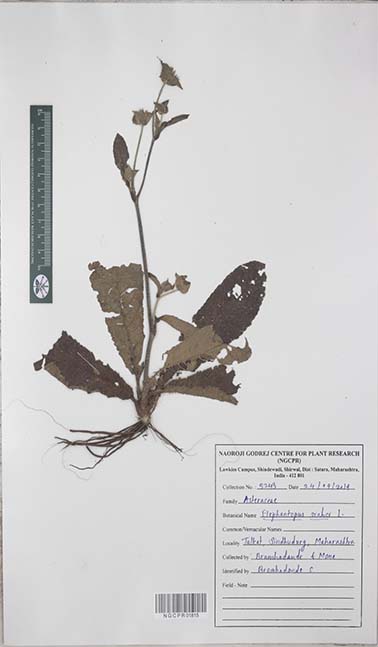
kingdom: Plantae
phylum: Tracheophyta
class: Magnoliopsida
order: Asterales
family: Asteraceae
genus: Elephantopus
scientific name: Elephantopus scaber
